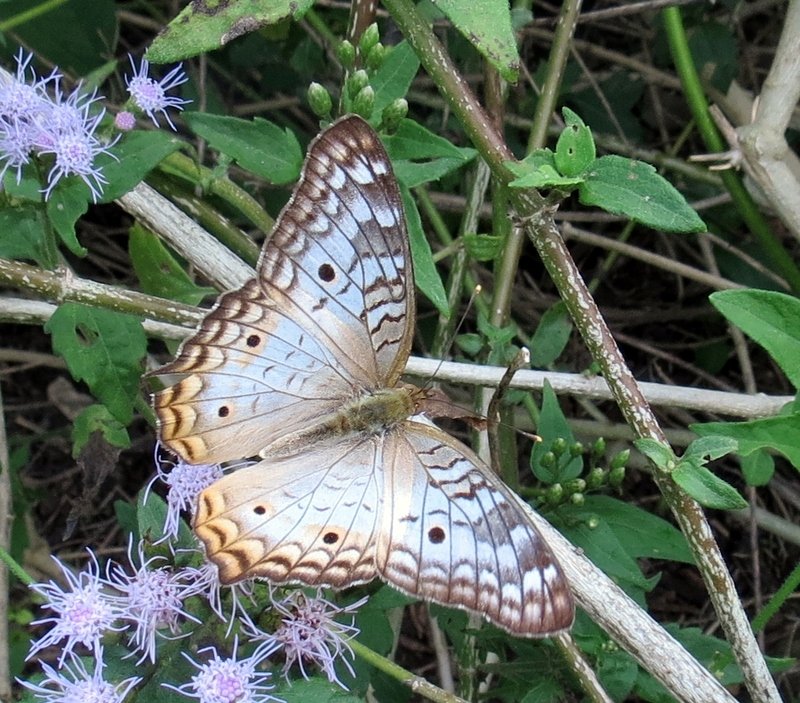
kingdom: Animalia
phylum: Arthropoda
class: Insecta
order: Lepidoptera
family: Nymphalidae
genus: Anartia
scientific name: Anartia jatrophae
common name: White Peacock
